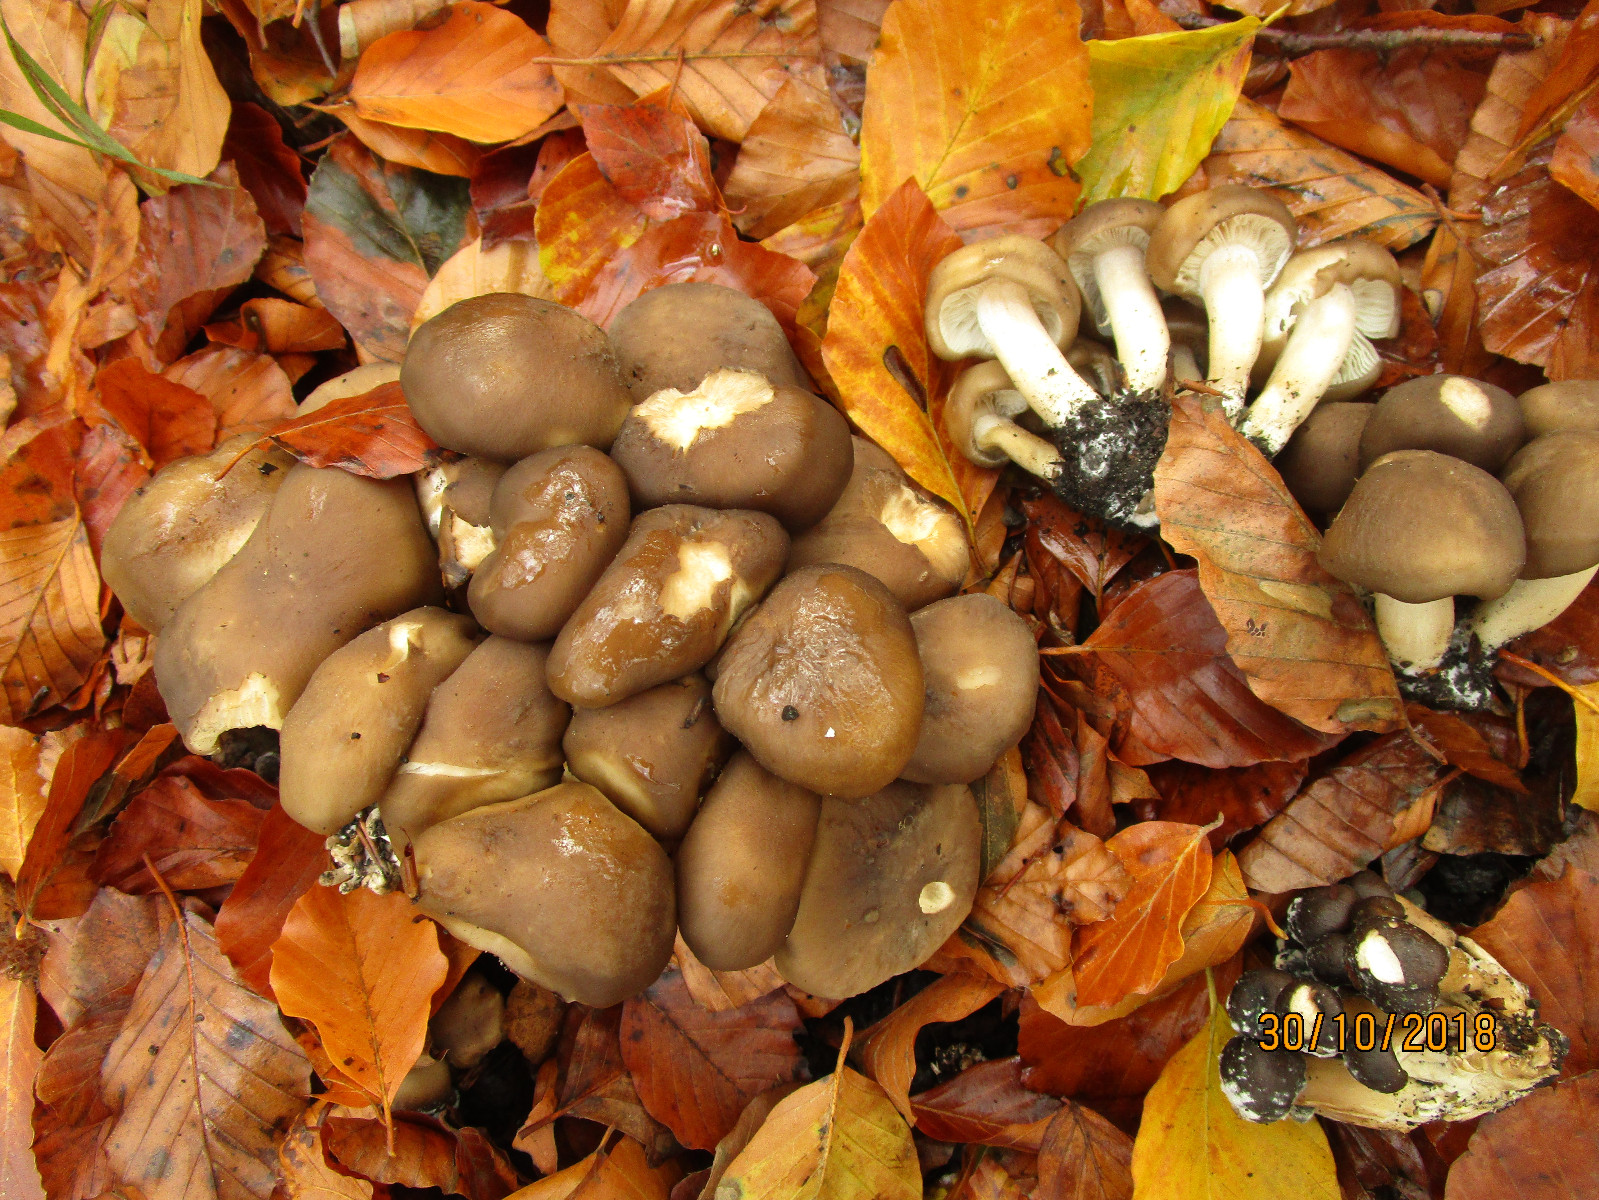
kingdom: Fungi
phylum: Basidiomycota
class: Agaricomycetes
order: Agaricales
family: Lyophyllaceae
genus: Lyophyllum
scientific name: Lyophyllum decastes
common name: røggrå gråblad
